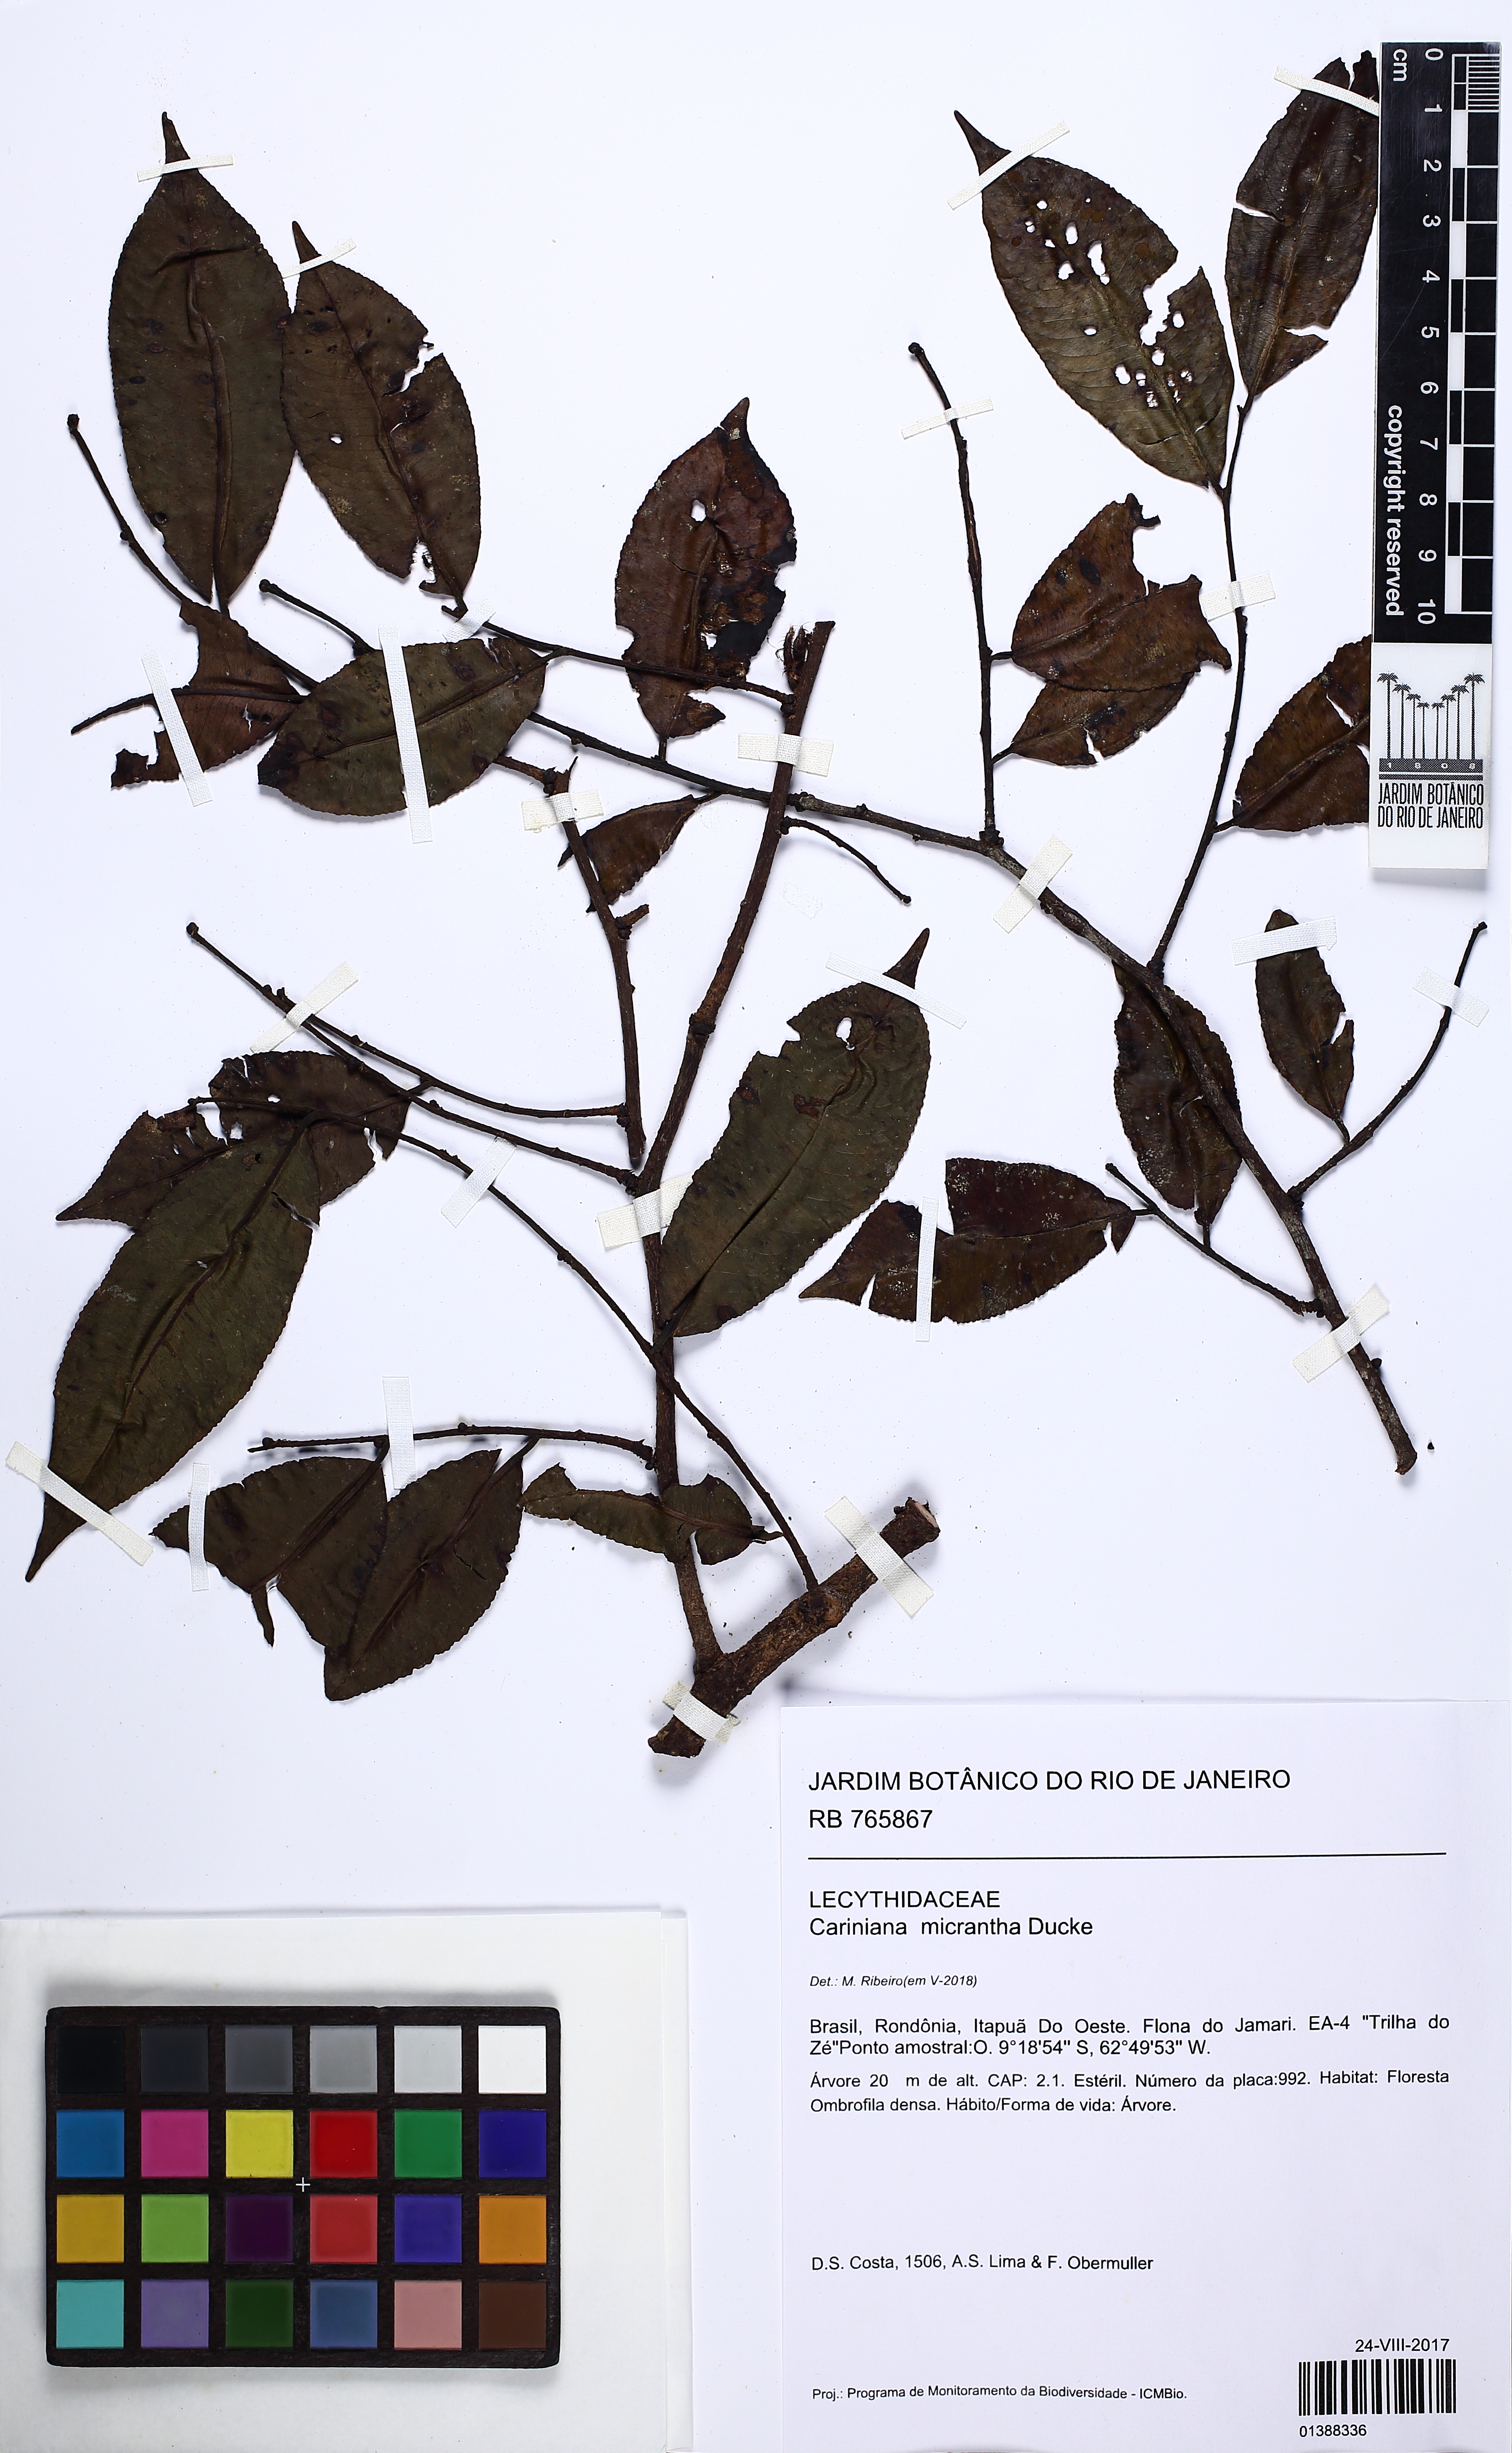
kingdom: Plantae
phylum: Tracheophyta
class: Magnoliopsida
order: Ericales
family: Lecythidaceae
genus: Cariniana
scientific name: Cariniana micrantha
